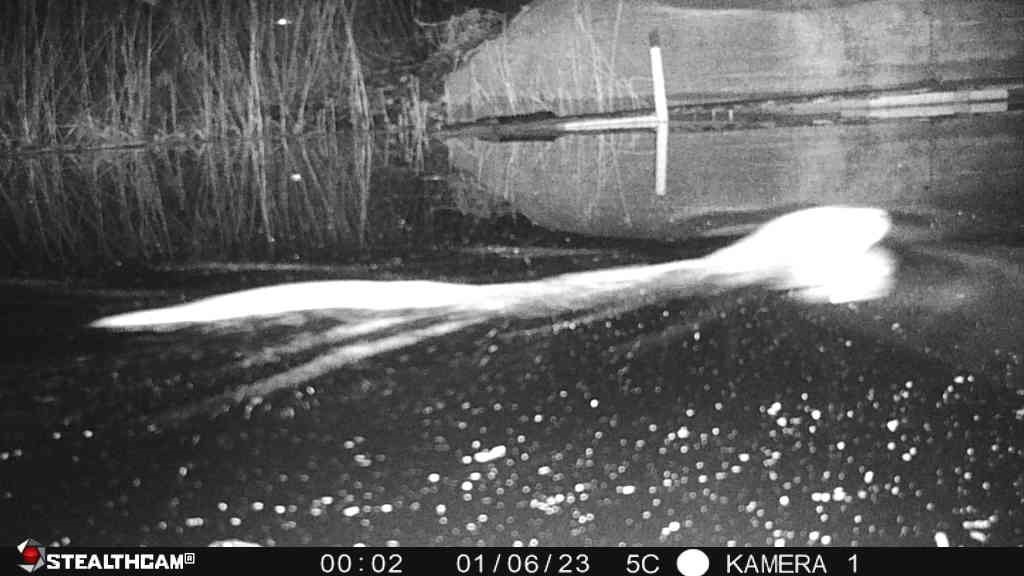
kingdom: Animalia
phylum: Chordata
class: Mammalia
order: Carnivora
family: Mustelidae
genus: Lutra
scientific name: Lutra lutra
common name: Odder
